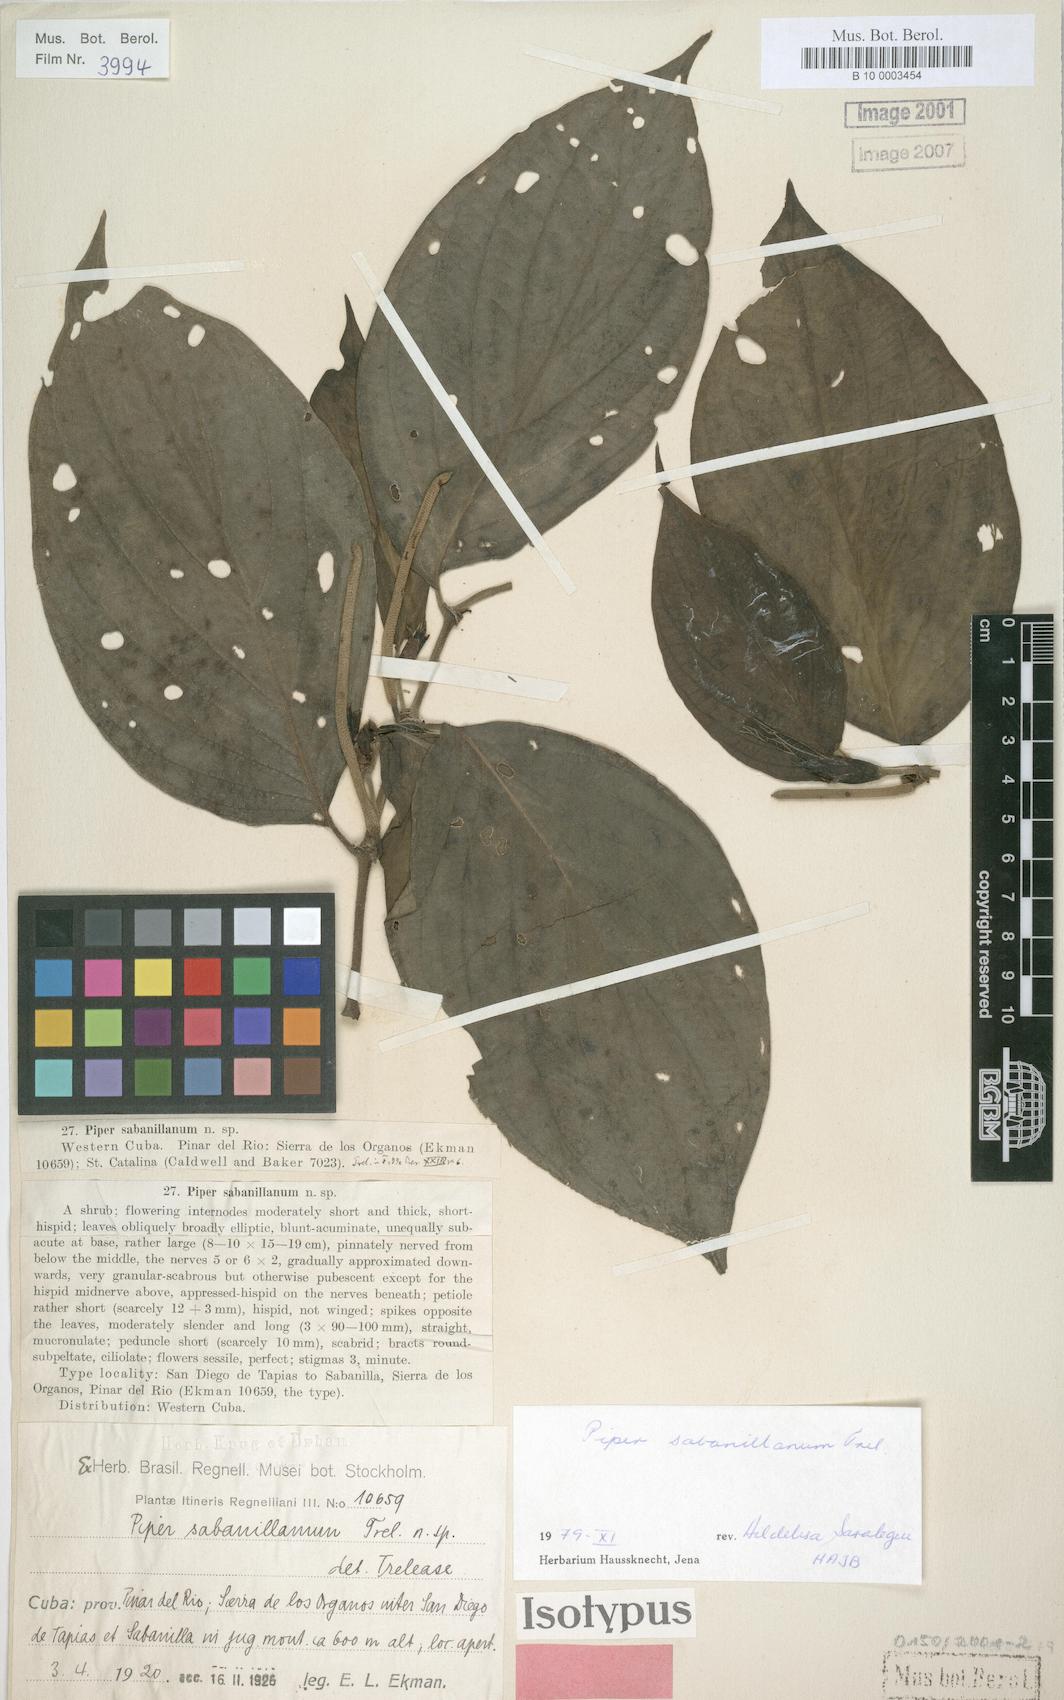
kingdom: Plantae
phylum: Tracheophyta
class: Magnoliopsida
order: Piperales
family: Piperaceae
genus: Piper
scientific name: Piper hispidum
